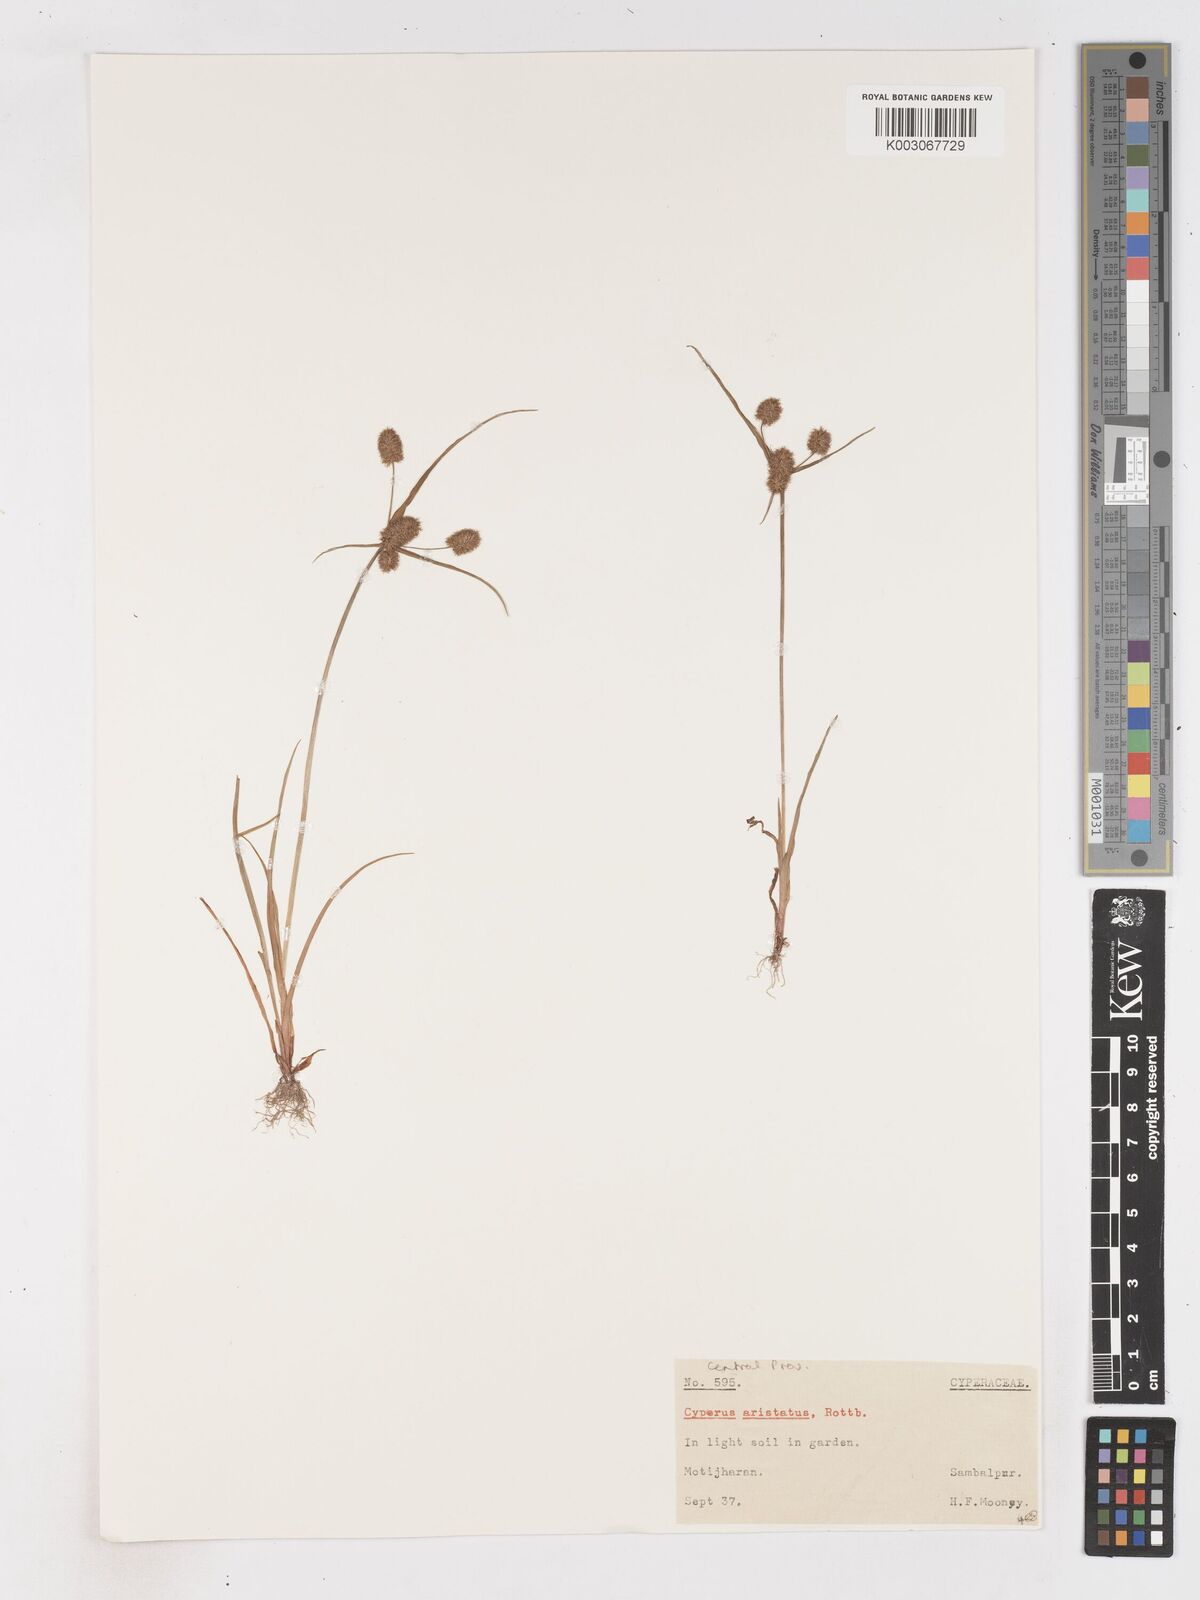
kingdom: Plantae
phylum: Tracheophyta
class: Liliopsida
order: Poales
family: Cyperaceae
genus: Cyperus
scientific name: Cyperus squarrosus
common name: Awned cyperus
